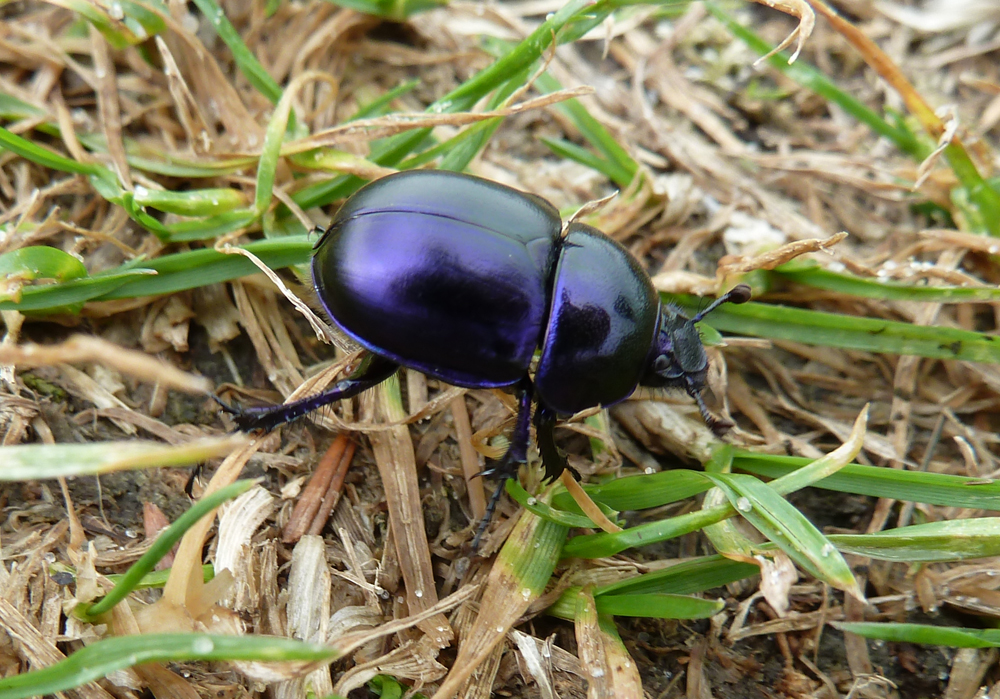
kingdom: Animalia
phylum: Arthropoda
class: Insecta
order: Coleoptera
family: Geotrupidae
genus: Trypocopris
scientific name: Trypocopris vernalis
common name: Spring dumbledor
